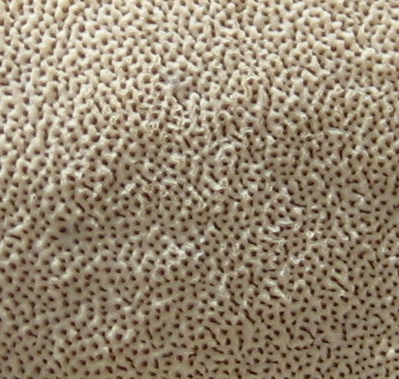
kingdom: Fungi
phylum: Basidiomycota
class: Agaricomycetes
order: Polyporales
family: Polyporaceae
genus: Cerioporus
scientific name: Cerioporus varius
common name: foranderlig stilkporesvamp
